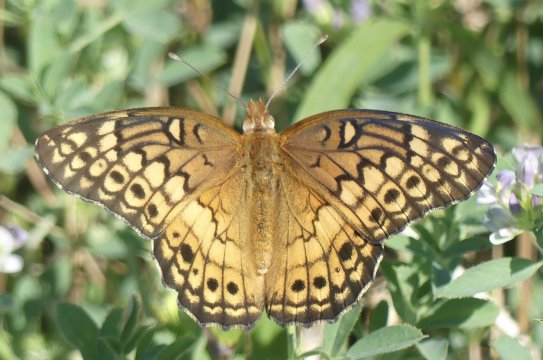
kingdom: Animalia
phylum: Arthropoda
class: Insecta
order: Lepidoptera
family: Nymphalidae
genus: Euptoieta
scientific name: Euptoieta claudia
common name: Variegated Fritillary
